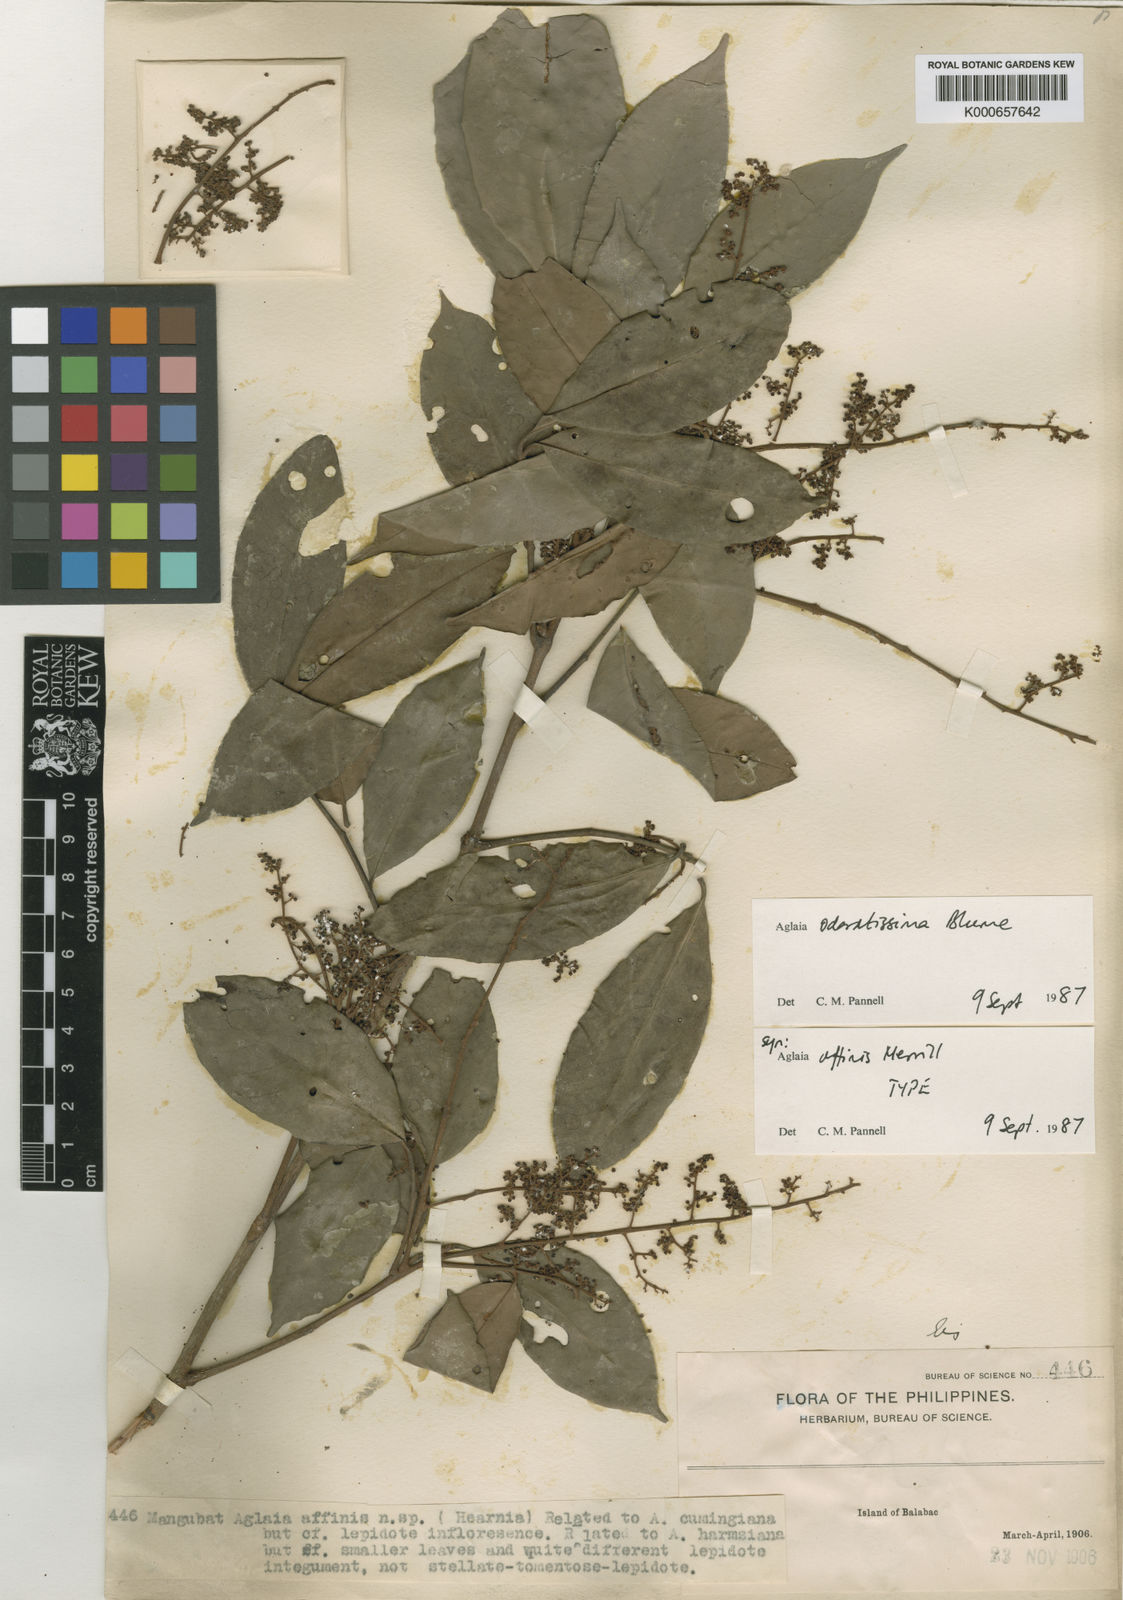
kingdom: Plantae
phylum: Tracheophyta
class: Magnoliopsida
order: Sapindales
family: Meliaceae
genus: Aglaia
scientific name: Aglaia odoratissima
